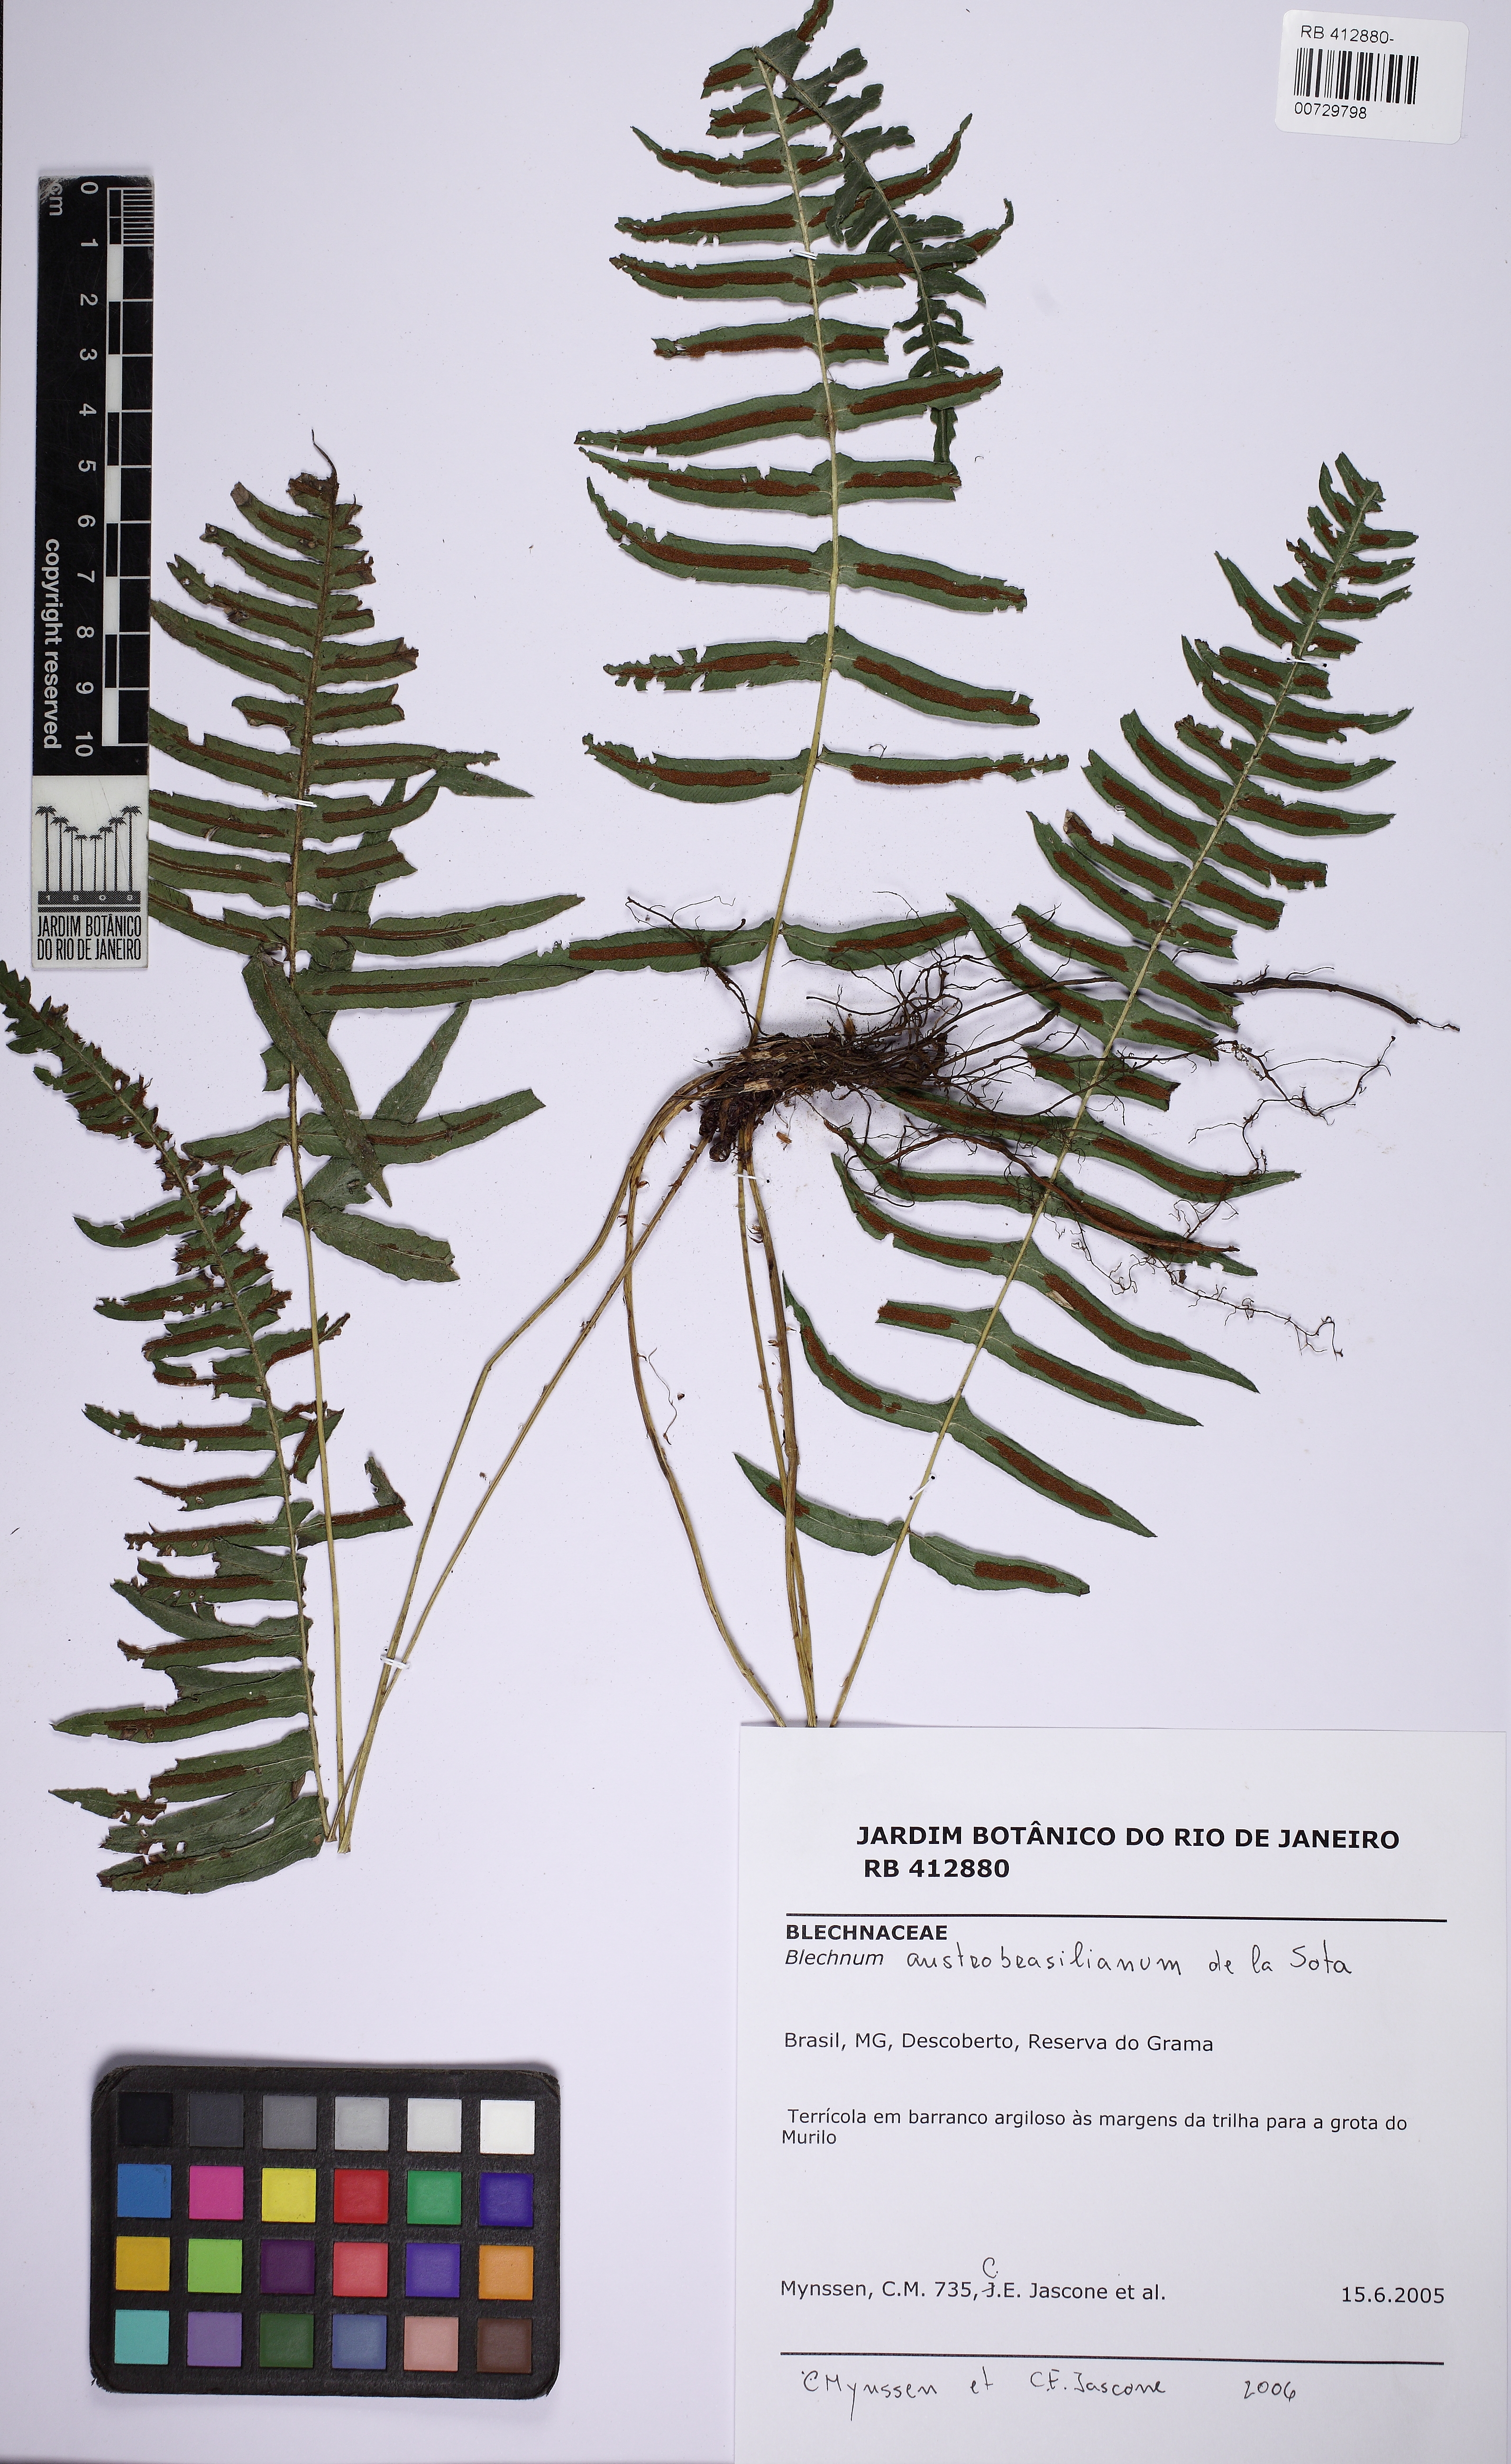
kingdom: Plantae
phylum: Tracheophyta
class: Polypodiopsida
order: Polypodiales
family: Blechnaceae
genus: Blechnum
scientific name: Blechnum austrobrasilianum
